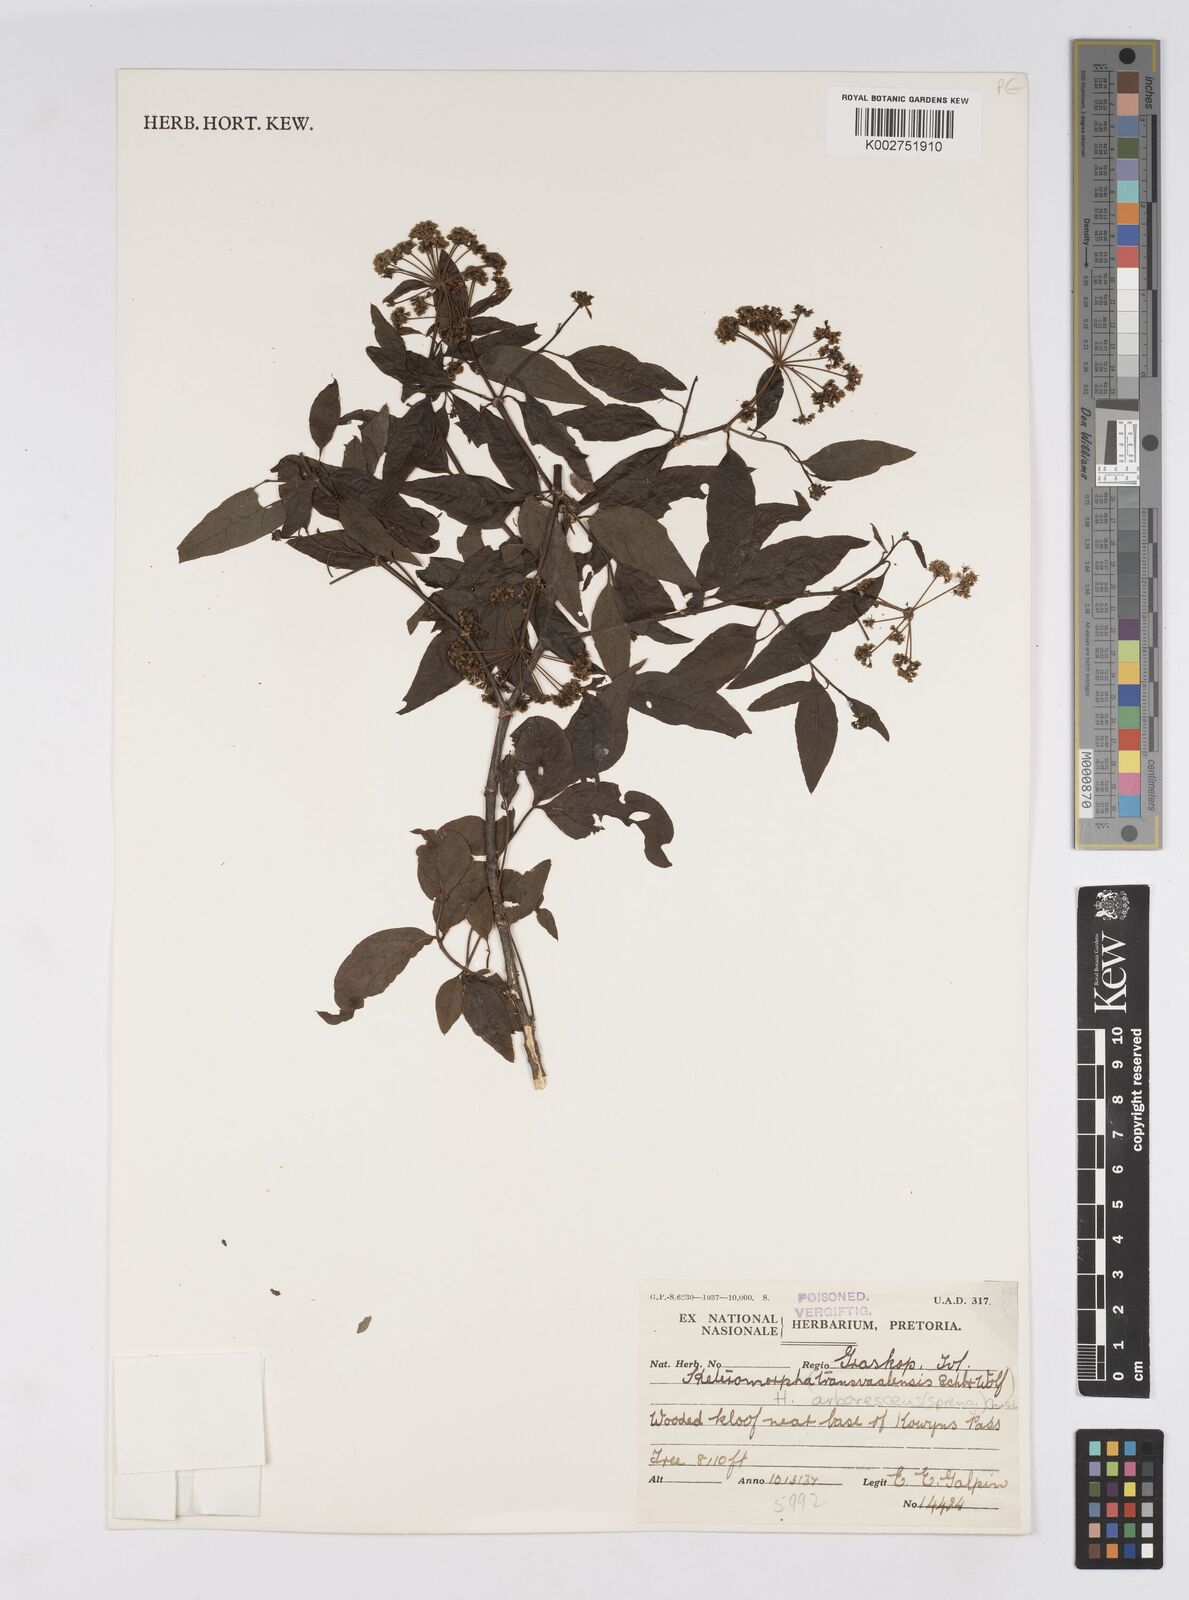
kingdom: Plantae
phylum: Tracheophyta
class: Magnoliopsida
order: Apiales
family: Apiaceae
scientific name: Apiaceae
